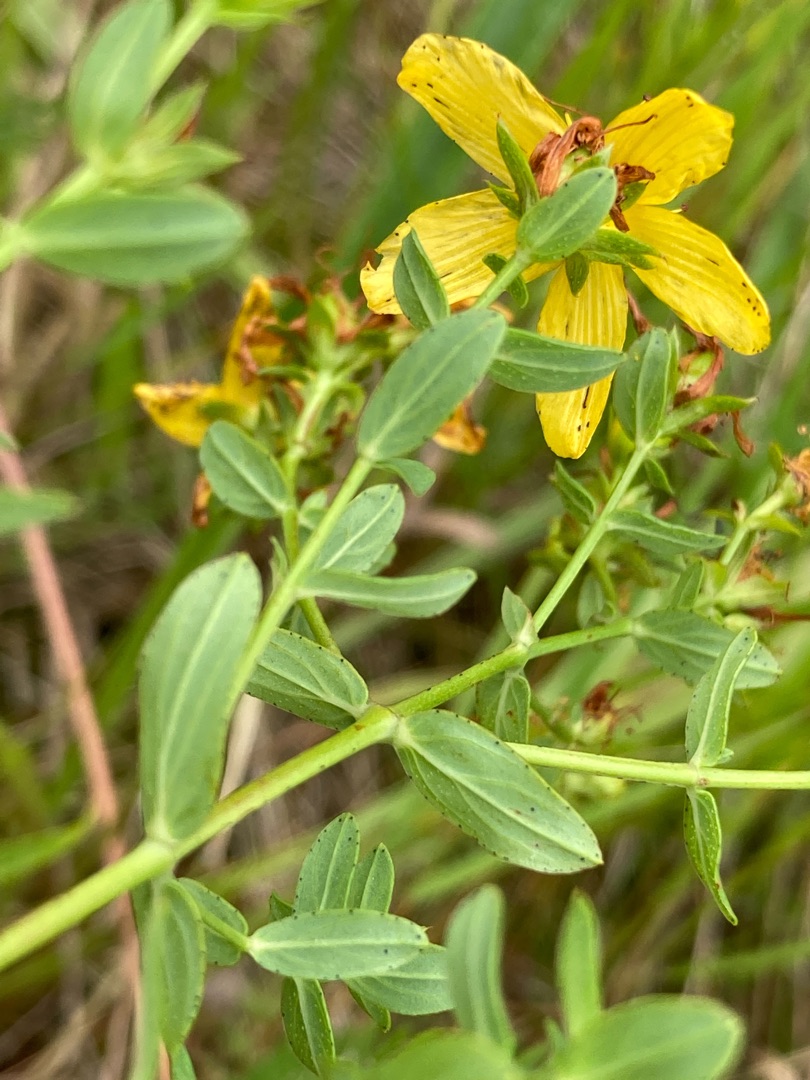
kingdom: Plantae
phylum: Tracheophyta
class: Magnoliopsida
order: Malpighiales
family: Hypericaceae
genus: Hypericum
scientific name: Hypericum perforatum
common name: Prikbladet perikon
